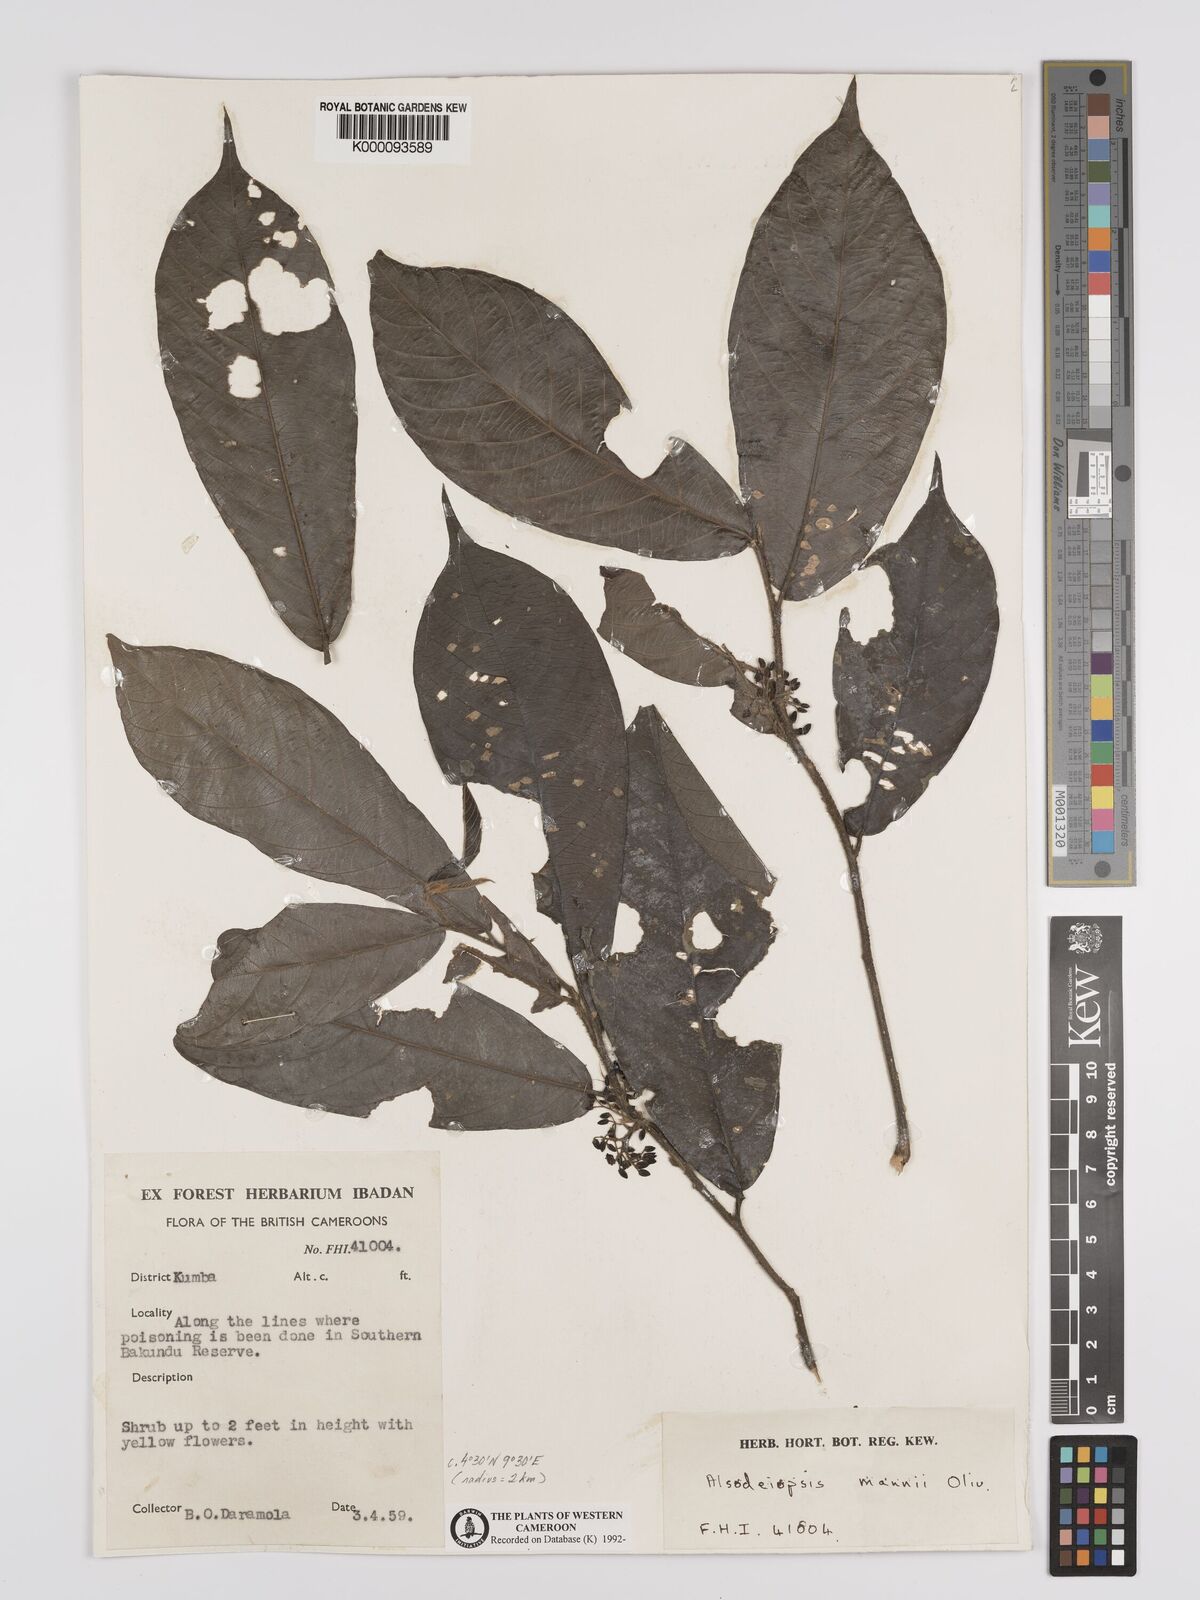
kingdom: Plantae
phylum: Tracheophyta
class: Magnoliopsida
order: Icacinales
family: Icacinaceae
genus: Alsodeiopsis
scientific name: Alsodeiopsis mannii
